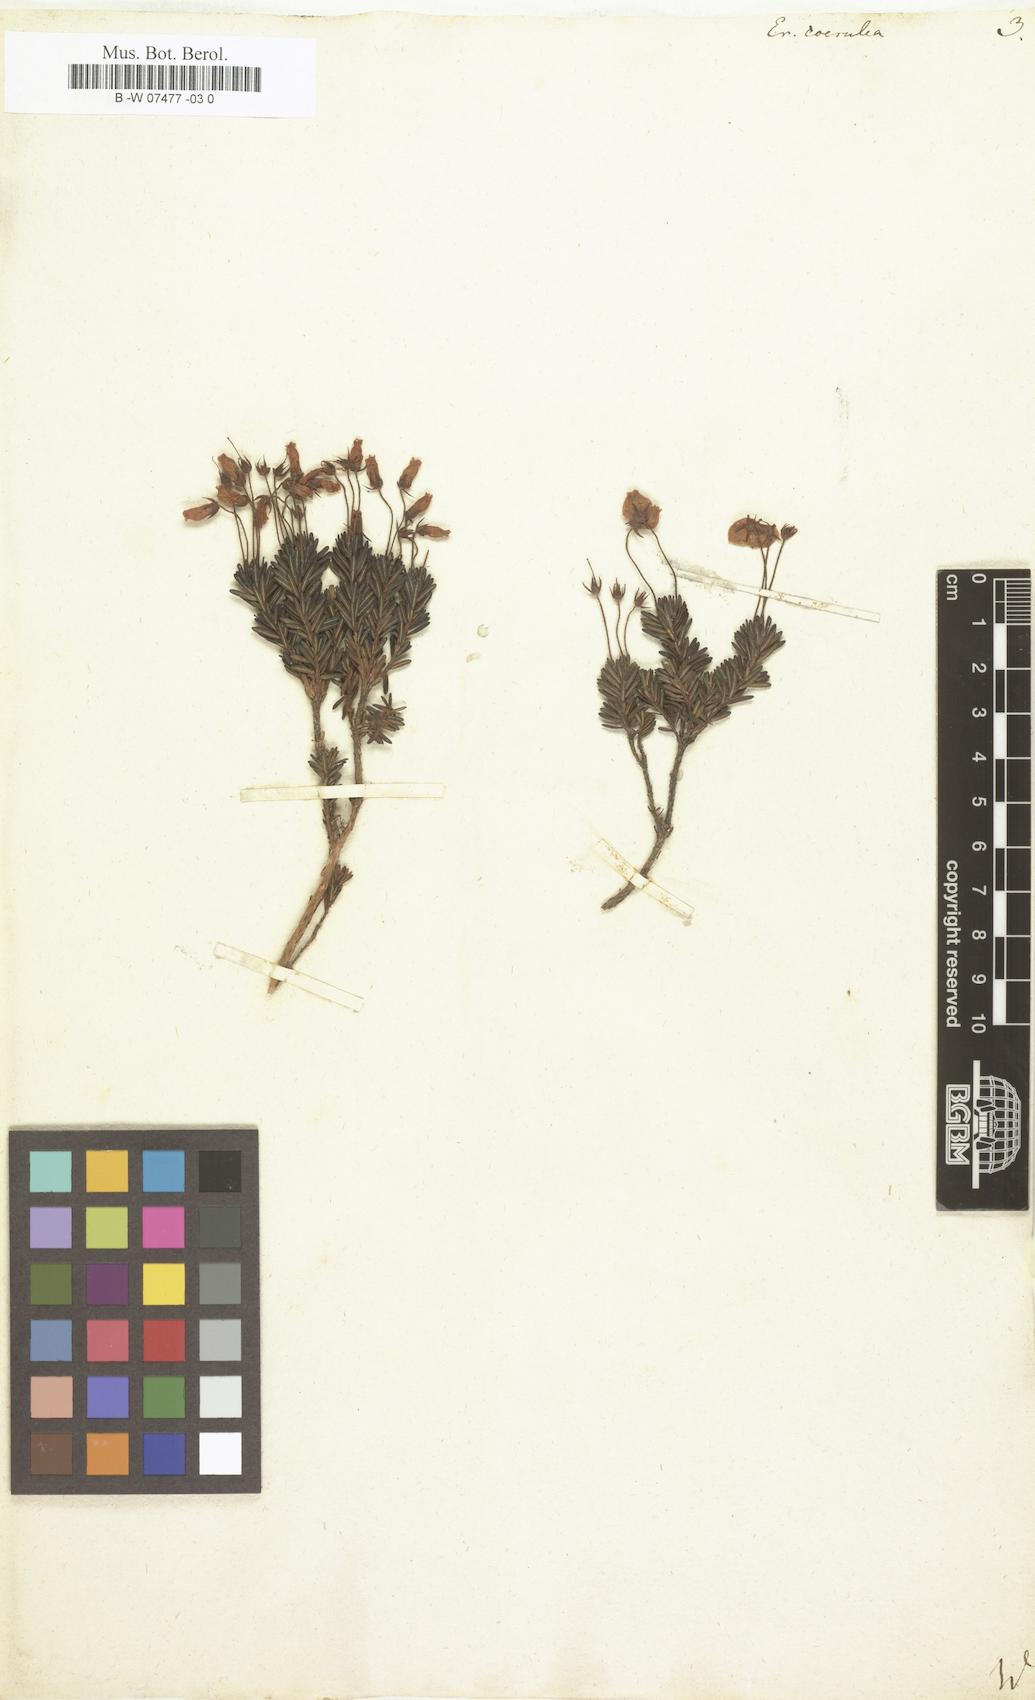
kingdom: Plantae
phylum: Tracheophyta
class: Magnoliopsida
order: Ericales
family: Ericaceae
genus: Phyllodoce
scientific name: Phyllodoce caerulea
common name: Blue heath
